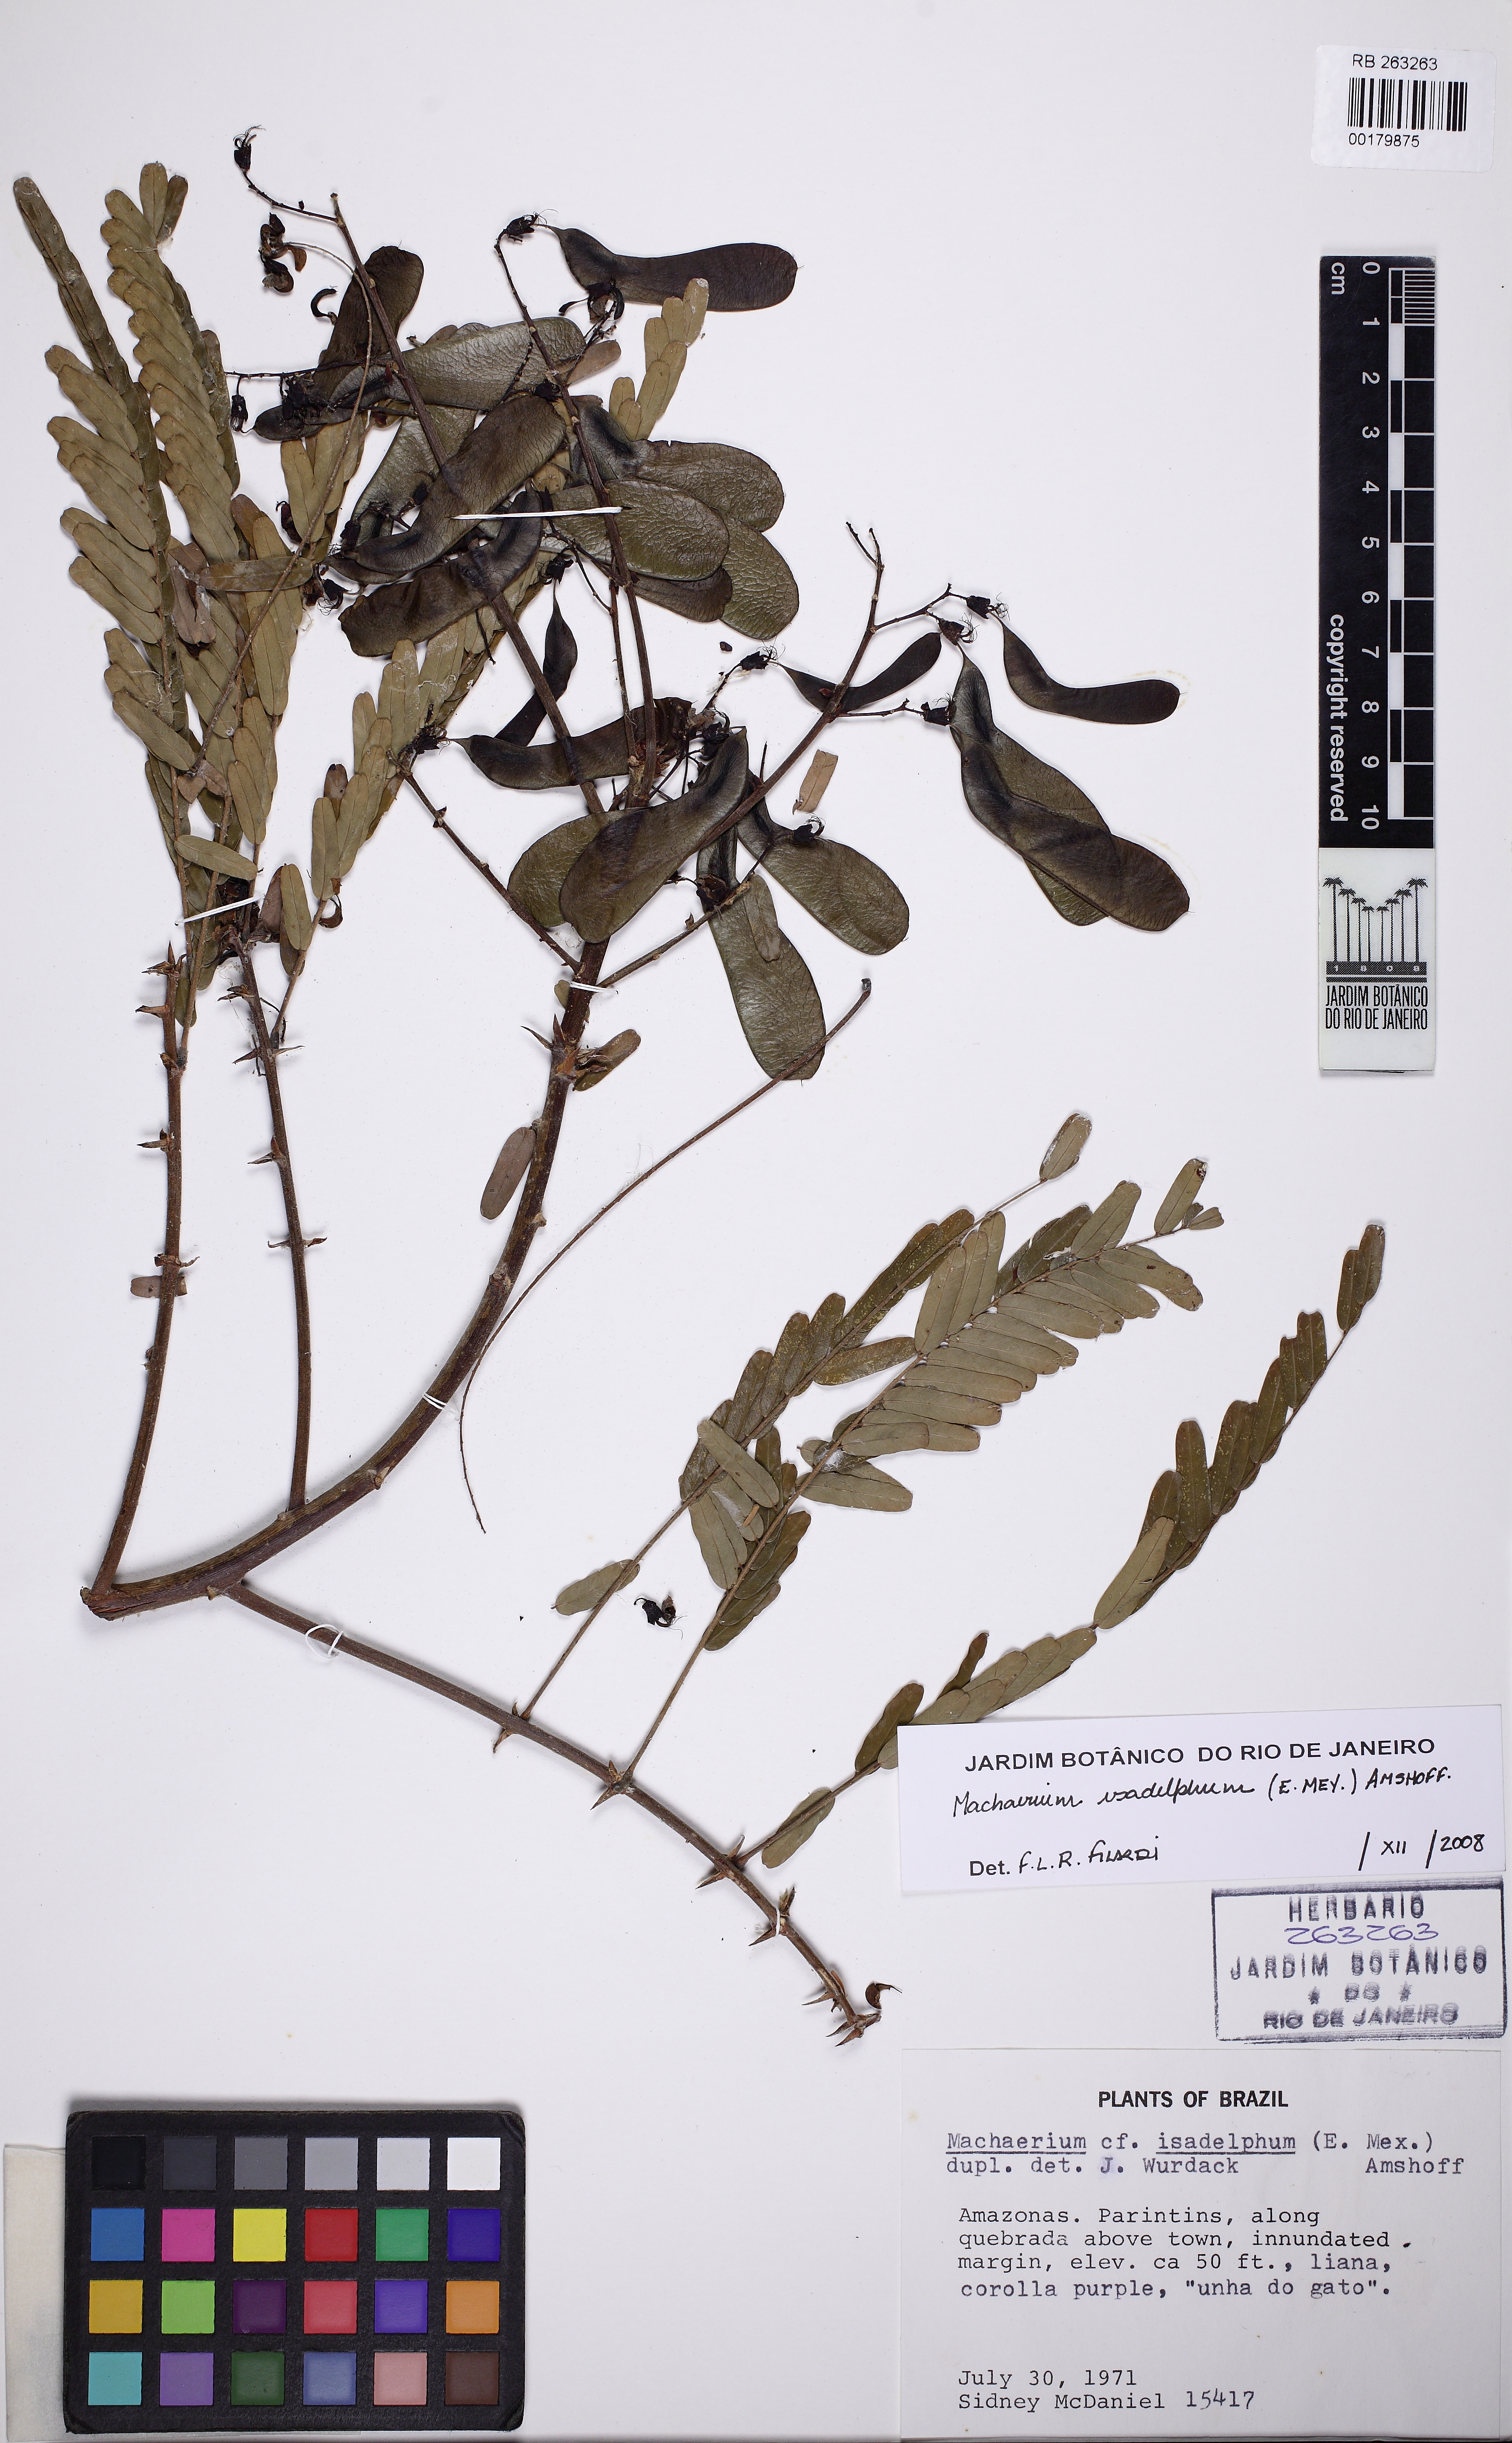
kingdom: Plantae
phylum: Tracheophyta
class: Magnoliopsida
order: Fabales
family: Fabaceae
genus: Machaerium
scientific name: Machaerium isadelphum
